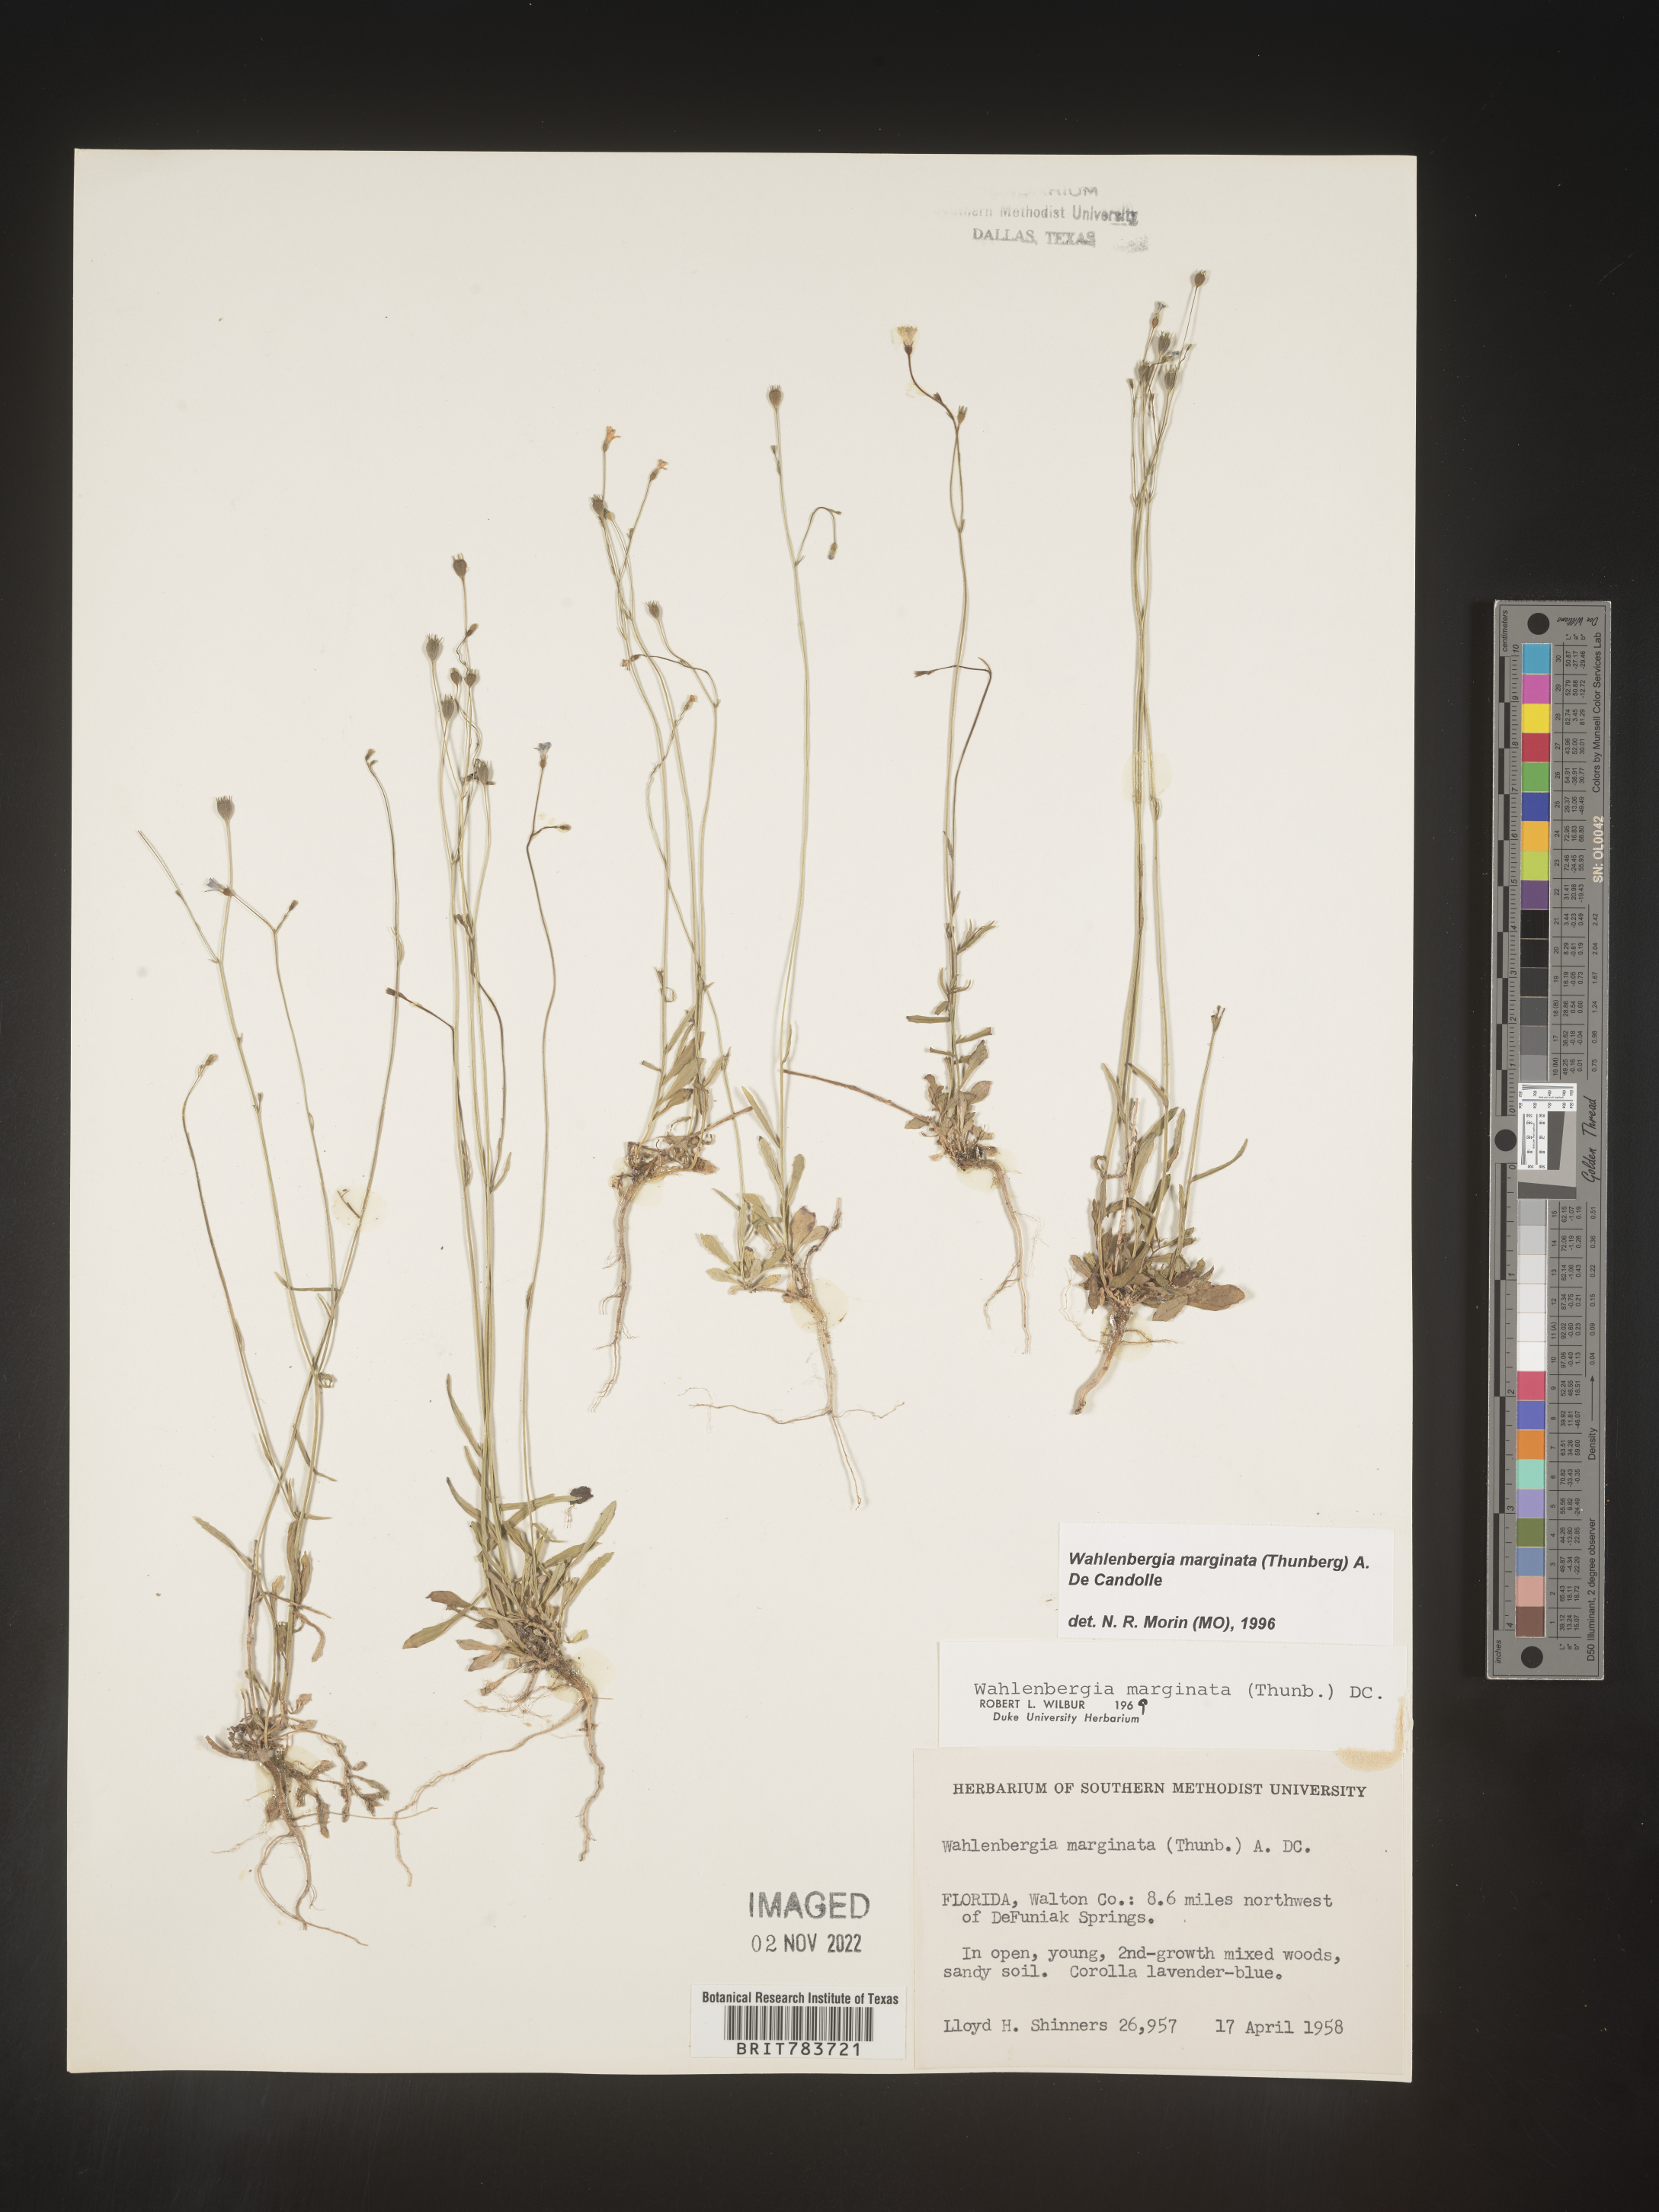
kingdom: Plantae
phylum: Tracheophyta
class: Magnoliopsida
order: Asterales
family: Campanulaceae
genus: Wahlenbergia
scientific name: Wahlenbergia marginata
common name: Southern rockbell
